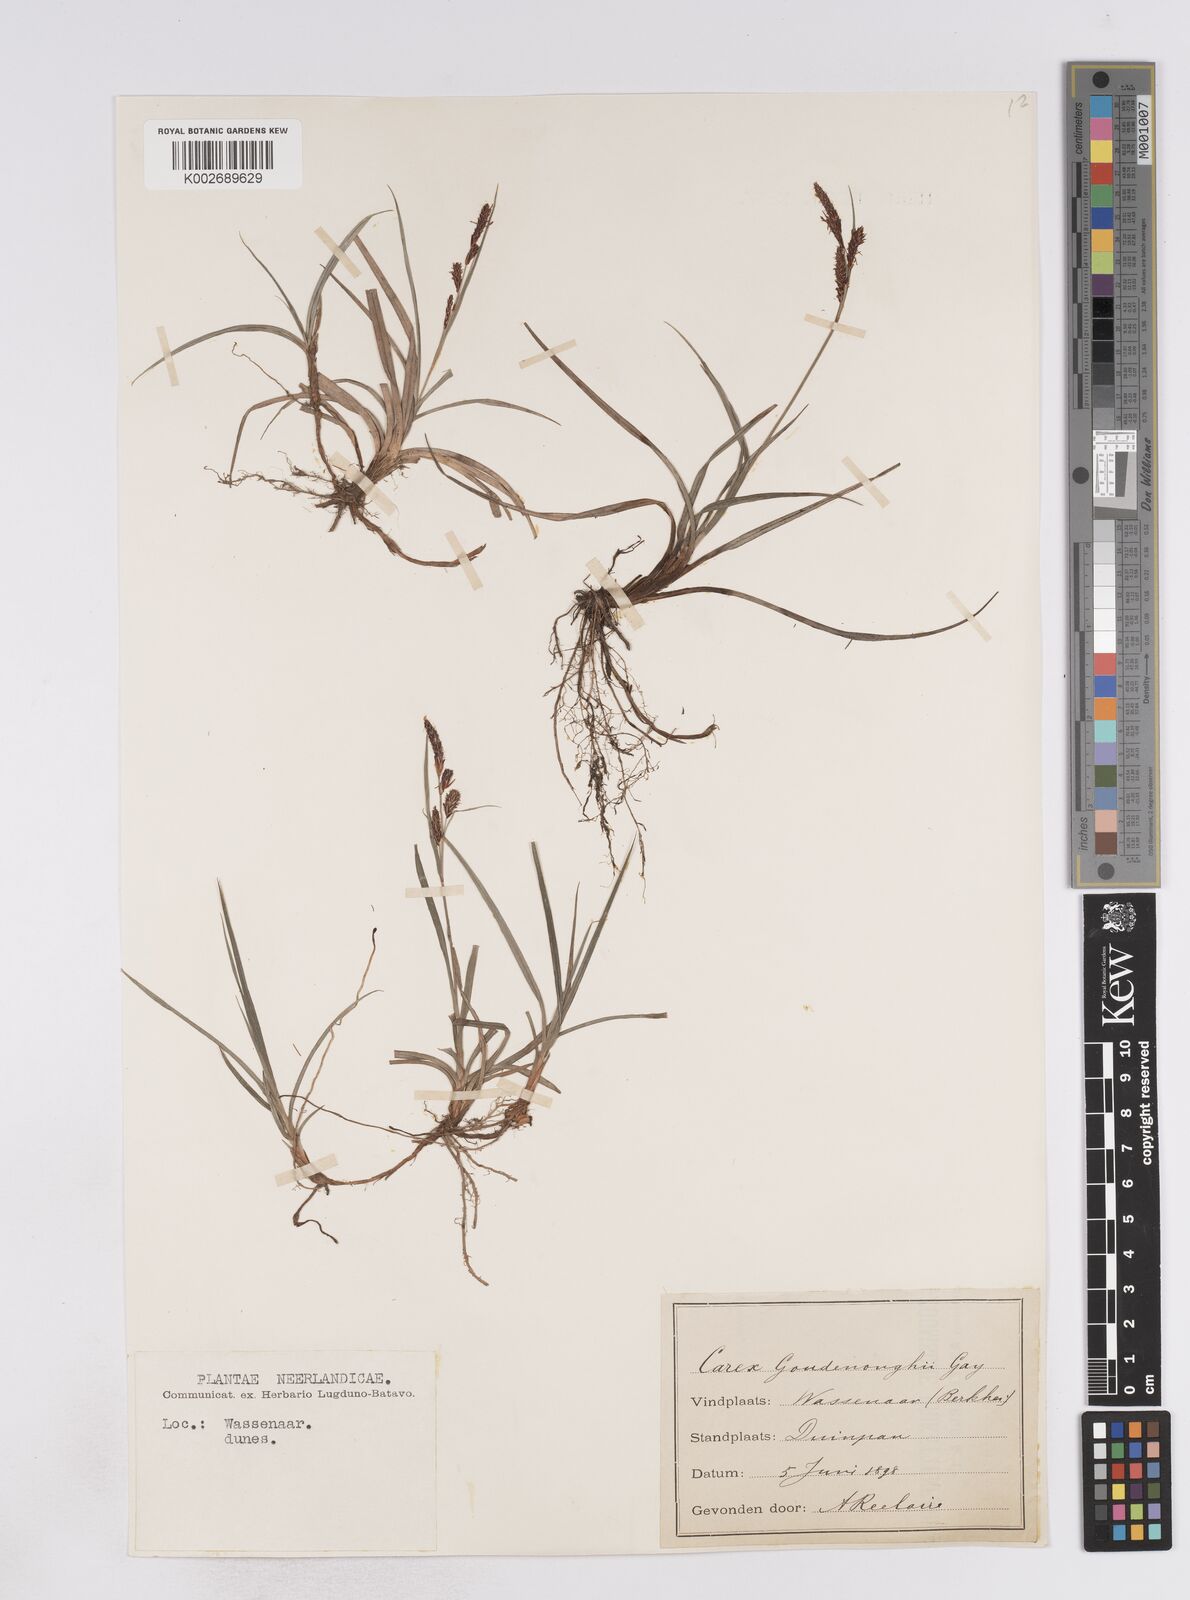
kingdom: Plantae
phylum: Tracheophyta
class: Liliopsida
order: Poales
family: Cyperaceae
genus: Carex
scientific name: Carex flacca
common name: Glaucous sedge
